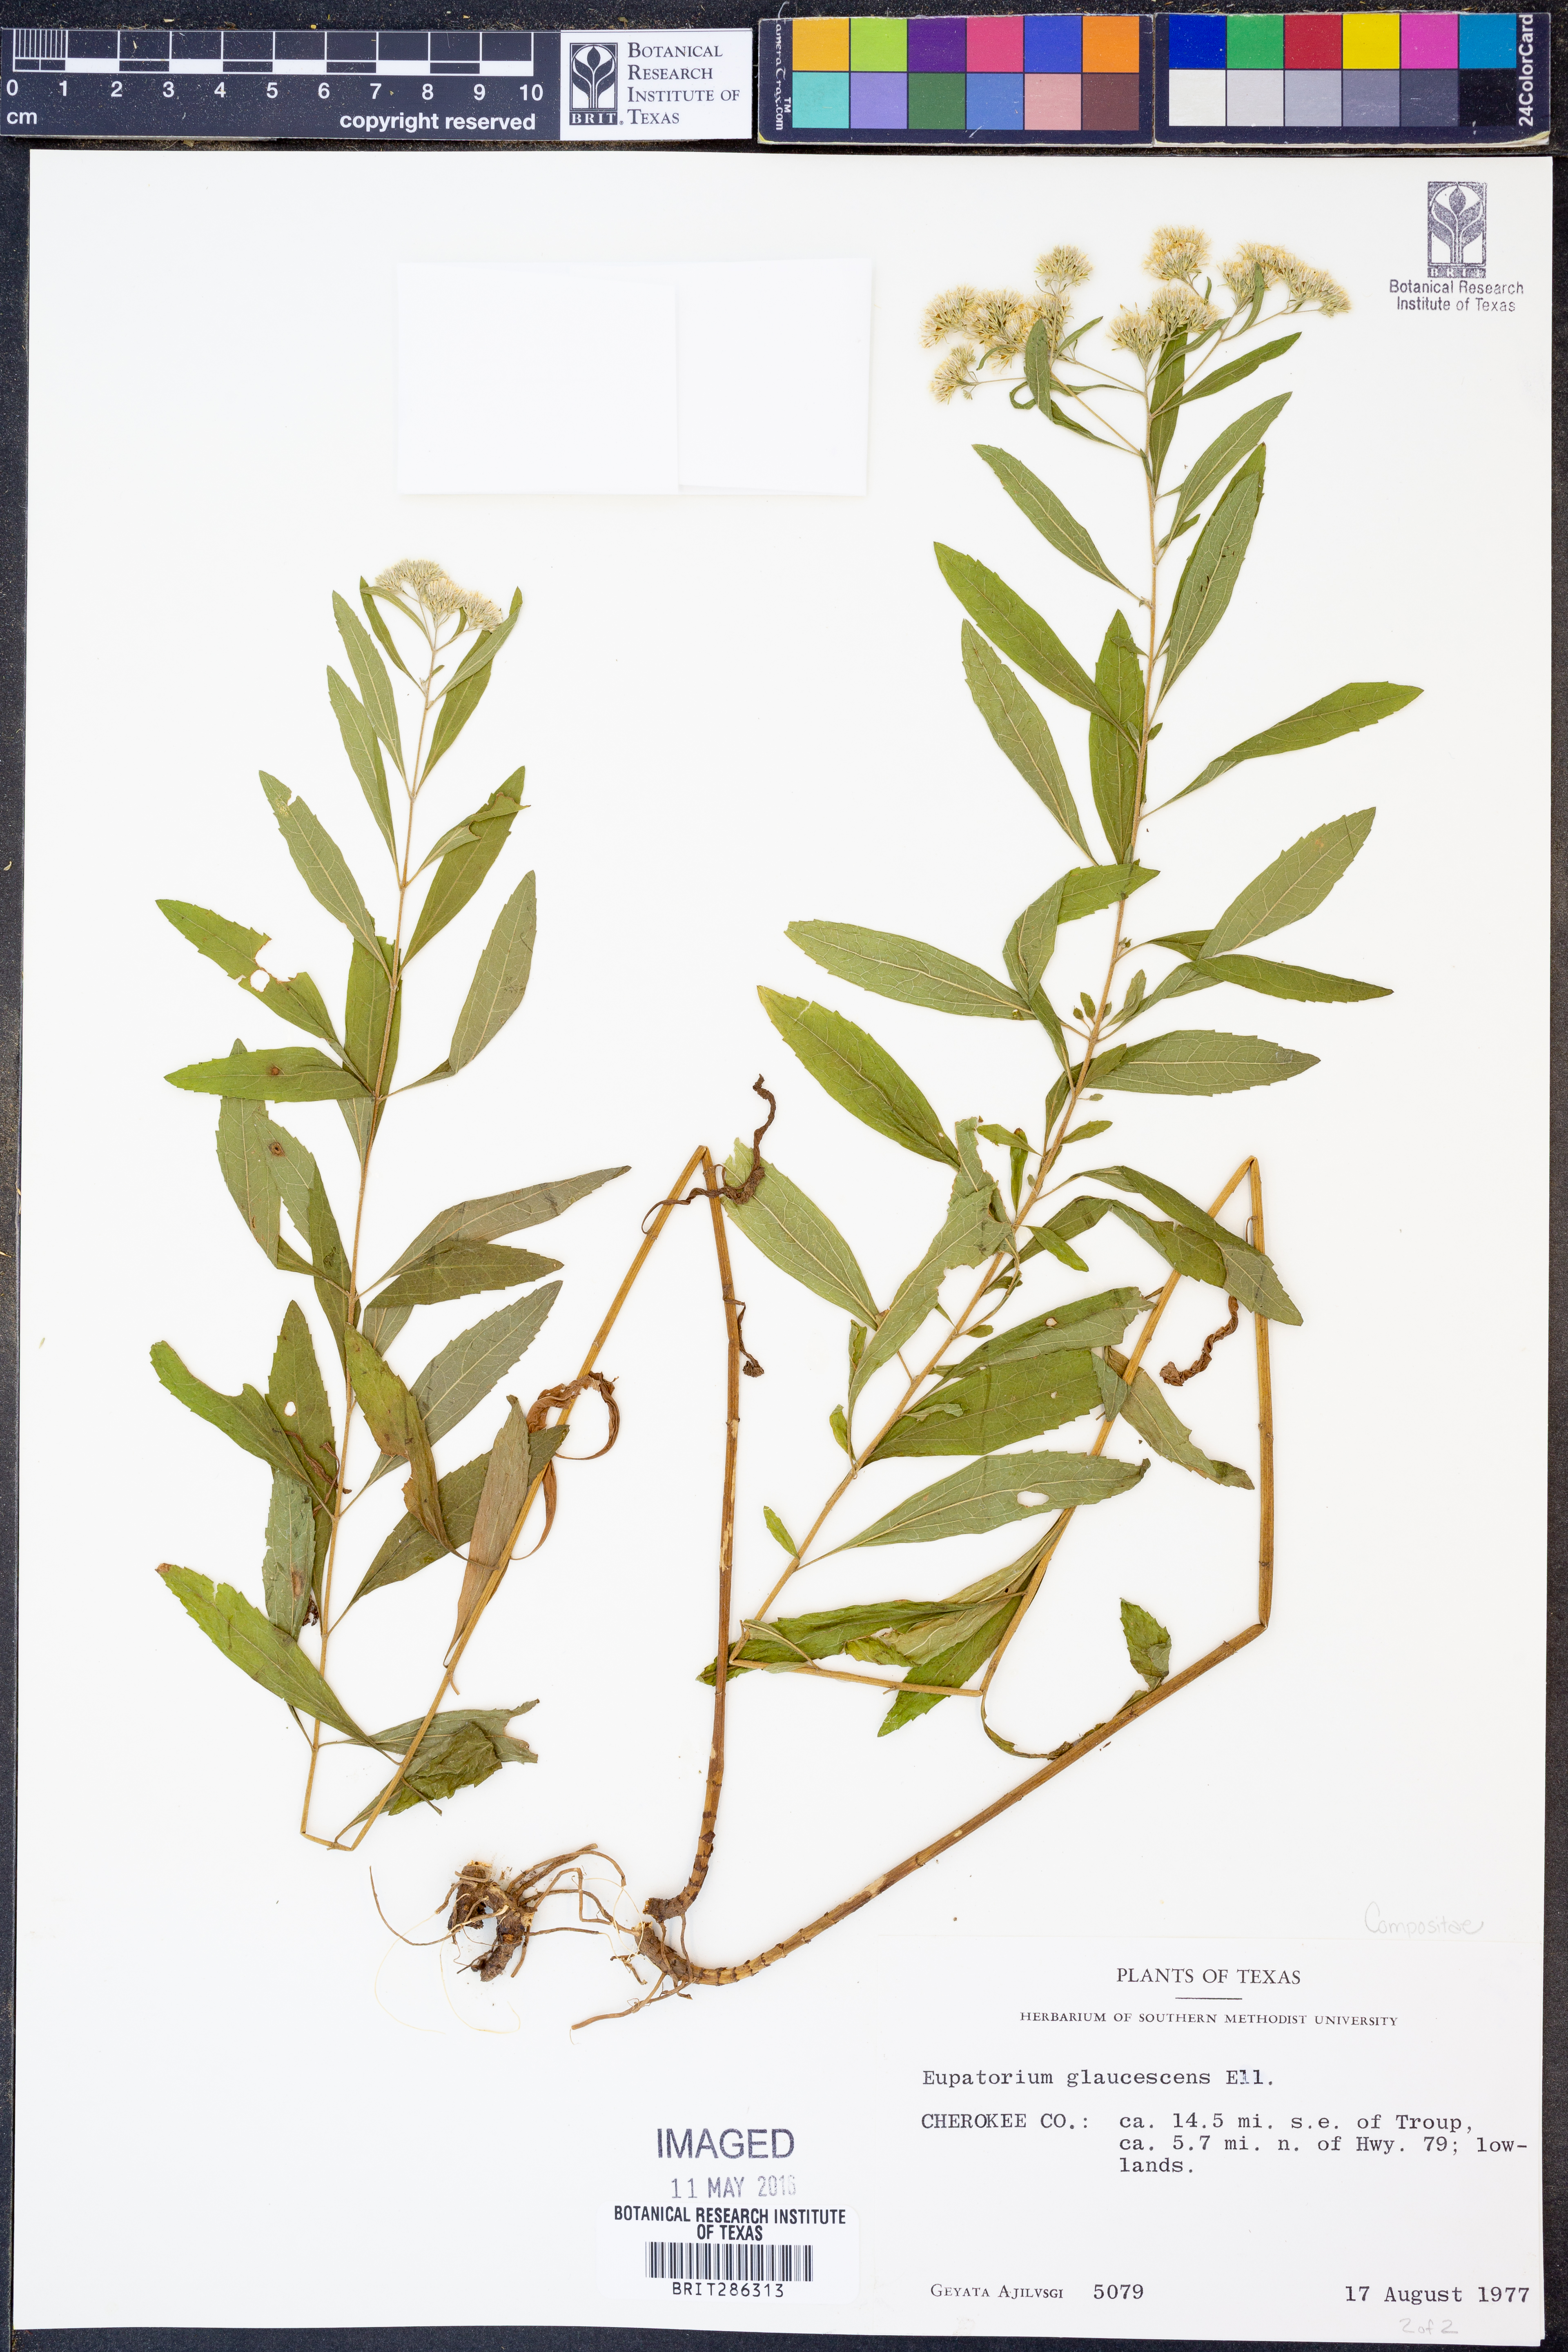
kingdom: Plantae
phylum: Tracheophyta
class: Magnoliopsida
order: Asterales
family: Asteraceae
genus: Eupatorium
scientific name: Eupatorium linearifolium
